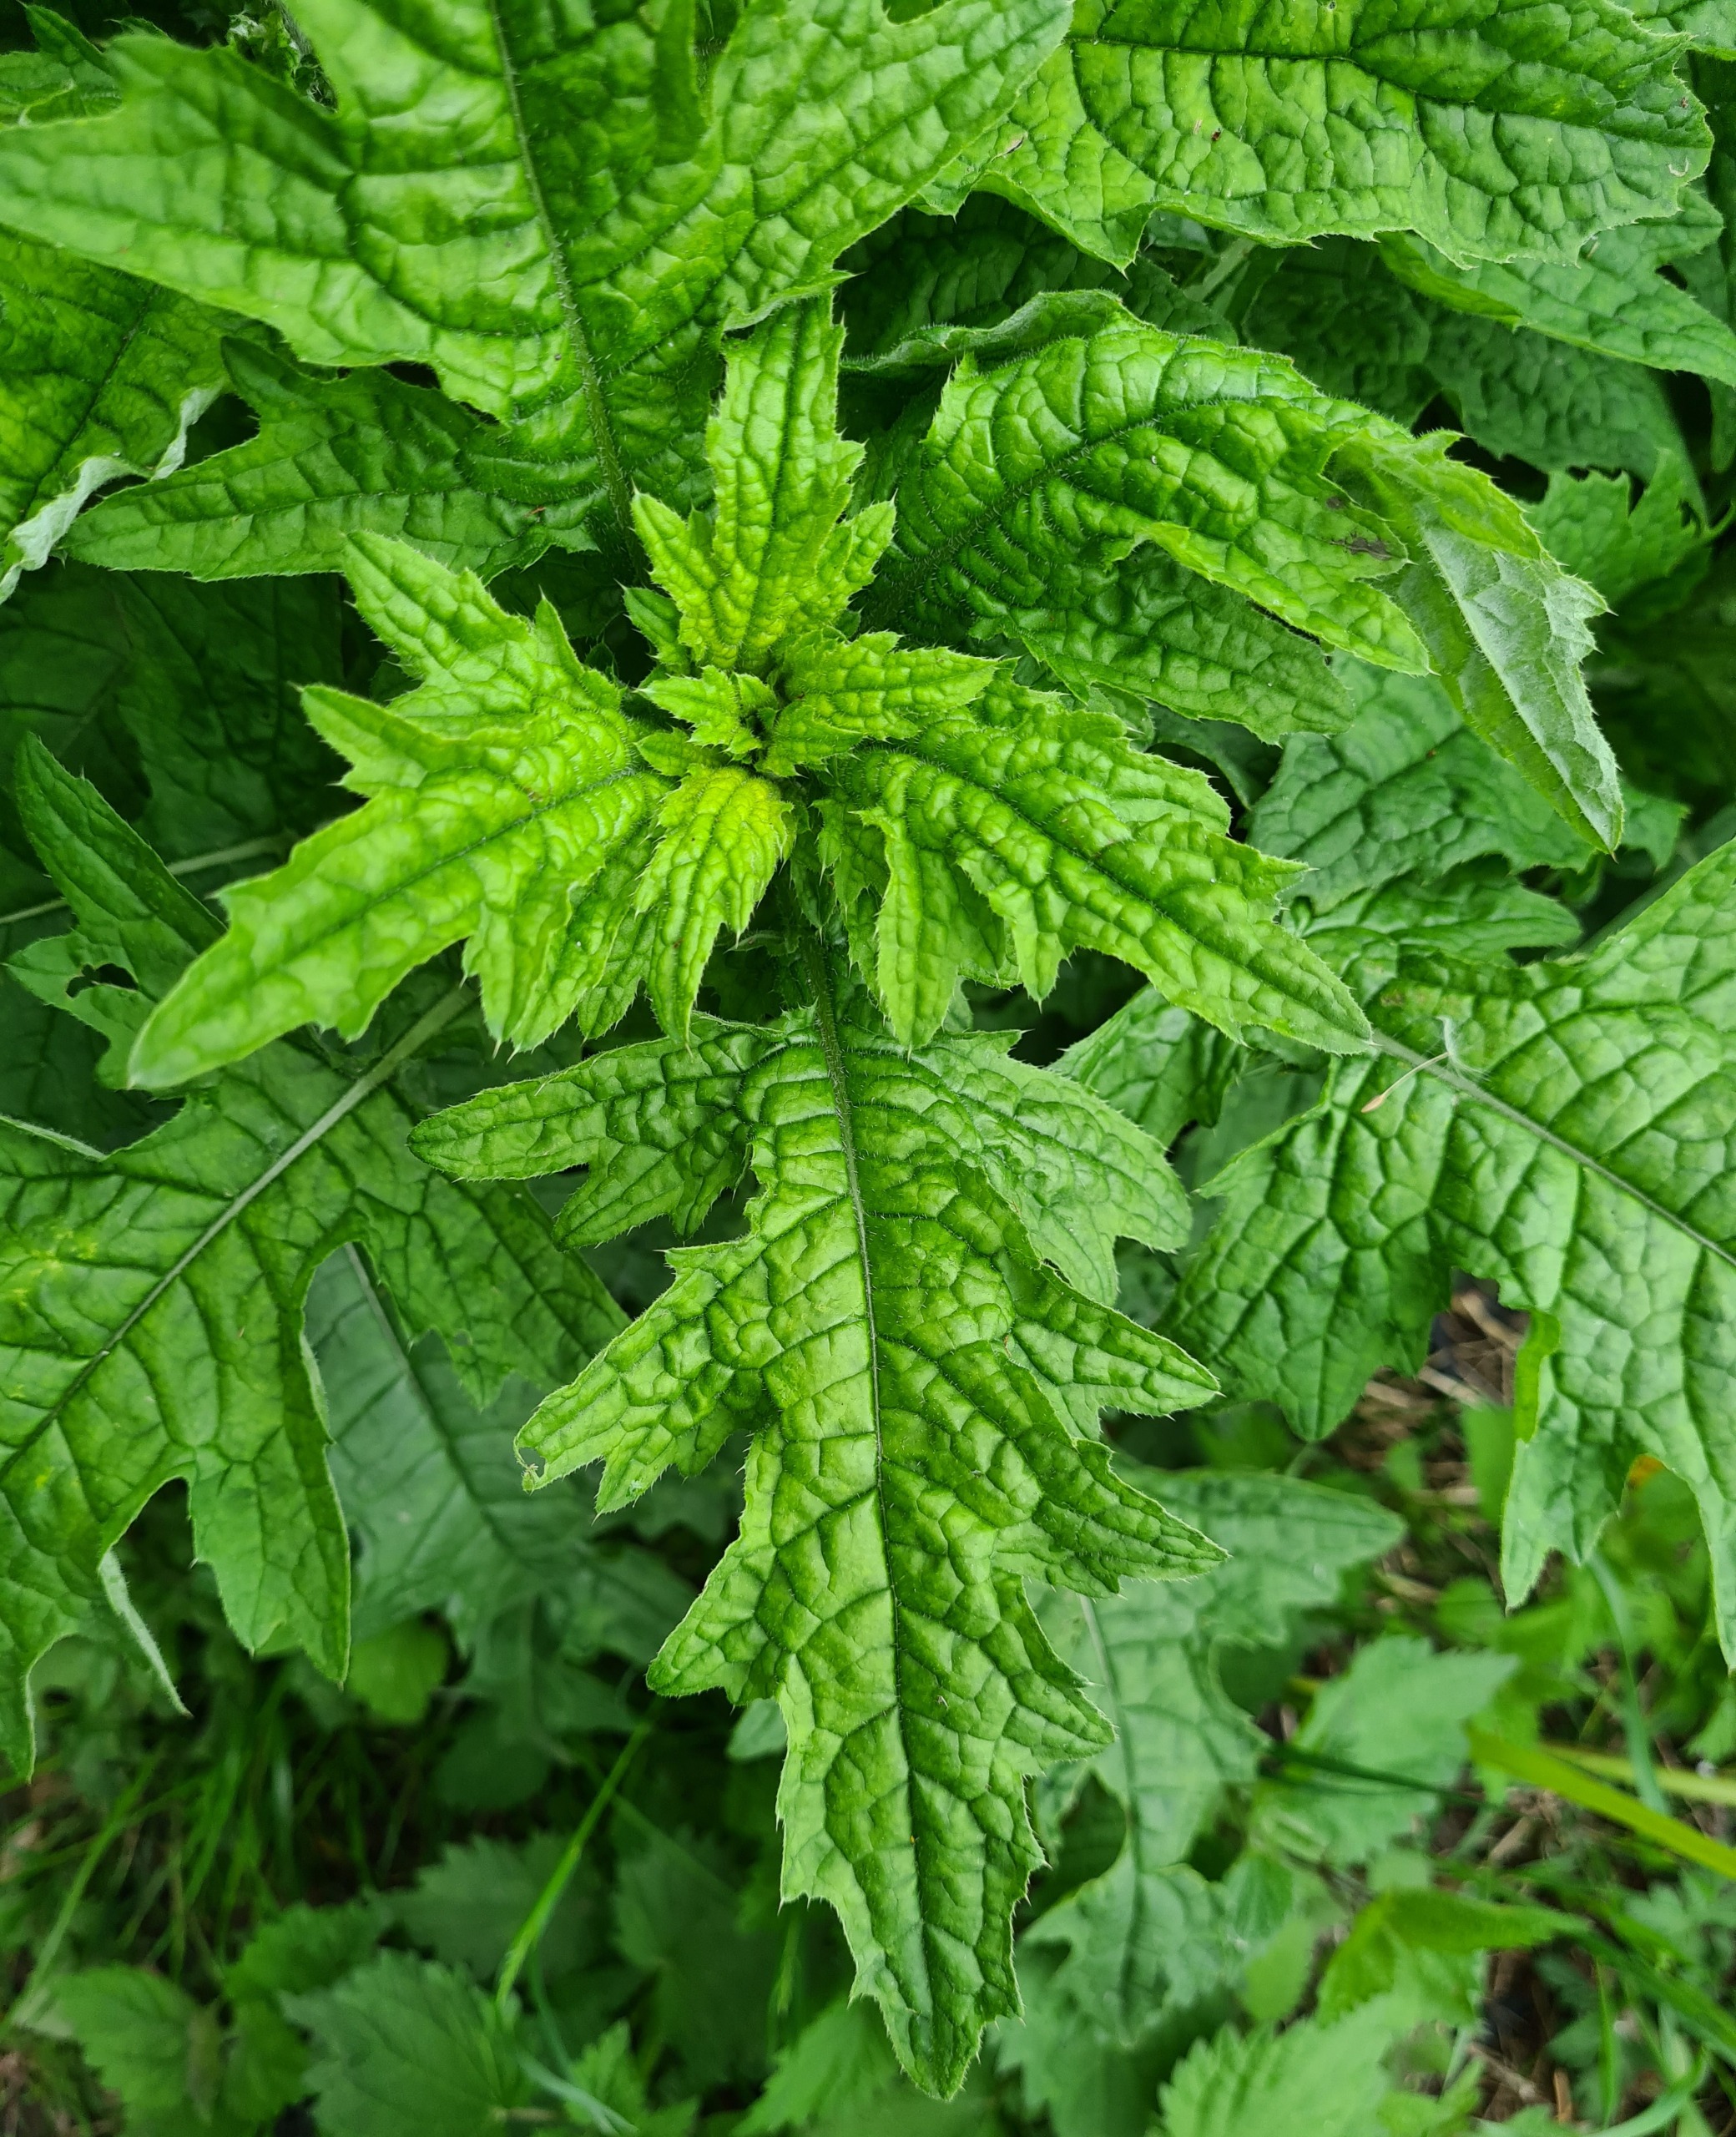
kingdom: Plantae
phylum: Tracheophyta
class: Magnoliopsida
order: Asterales
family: Asteraceae
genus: Carduus
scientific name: Carduus crispus
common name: Kruset tidsel
